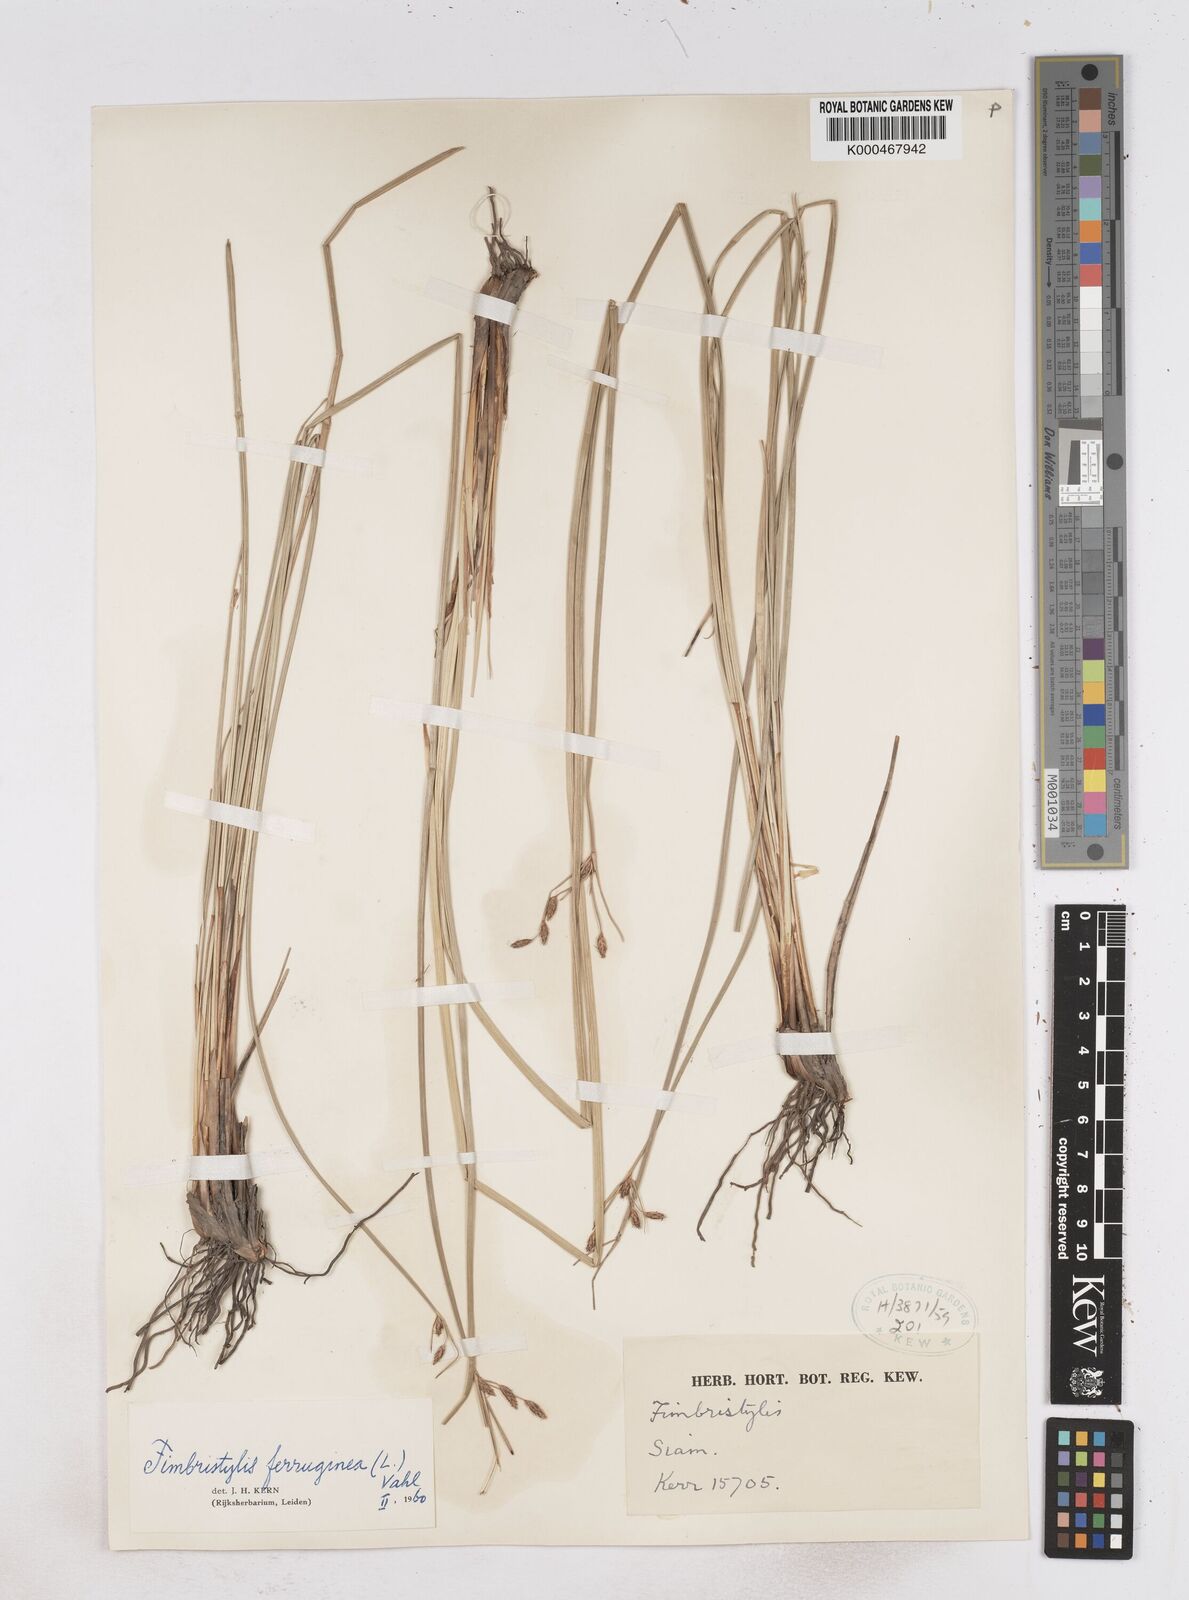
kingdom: Plantae
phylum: Tracheophyta
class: Liliopsida
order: Poales
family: Cyperaceae
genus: Fimbristylis
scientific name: Fimbristylis ferruginea
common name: West indian fimbry
